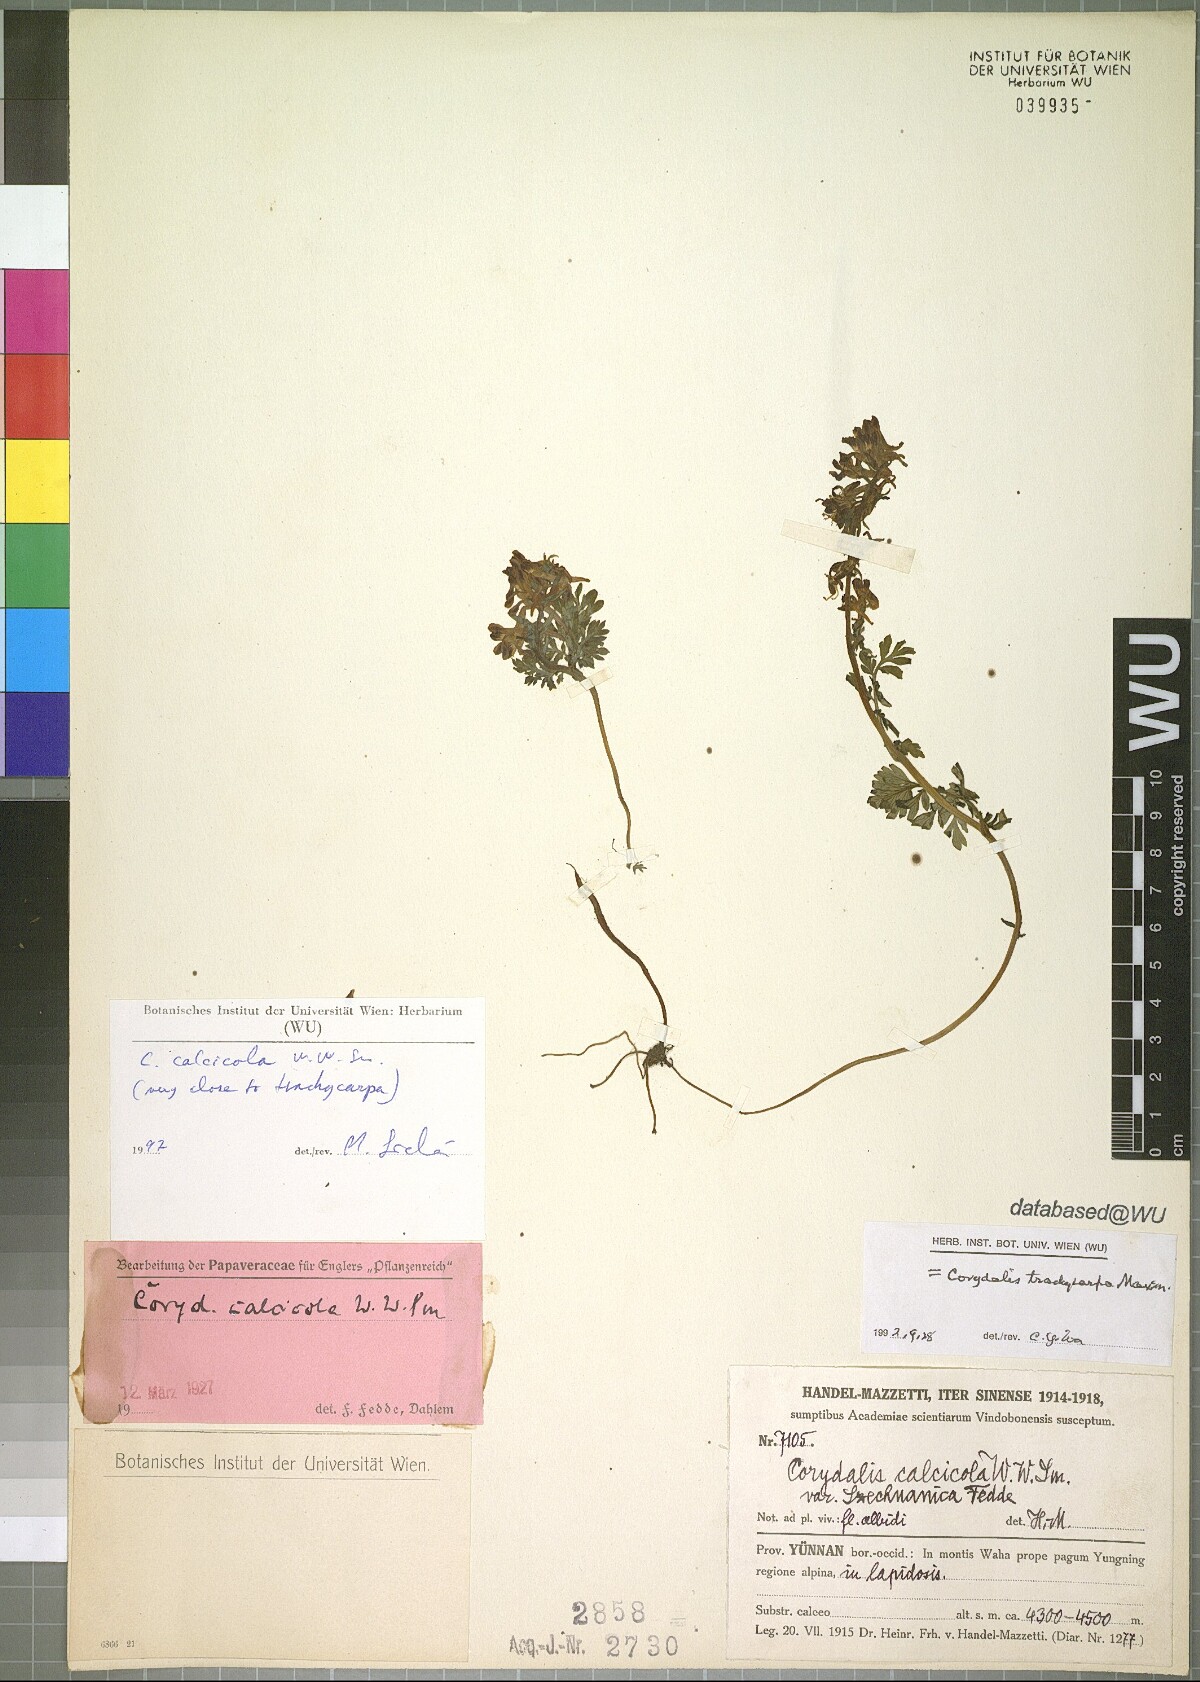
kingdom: Plantae
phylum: Tracheophyta
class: Magnoliopsida
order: Ranunculales
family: Papaveraceae
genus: Corydalis
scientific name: Corydalis hannae
